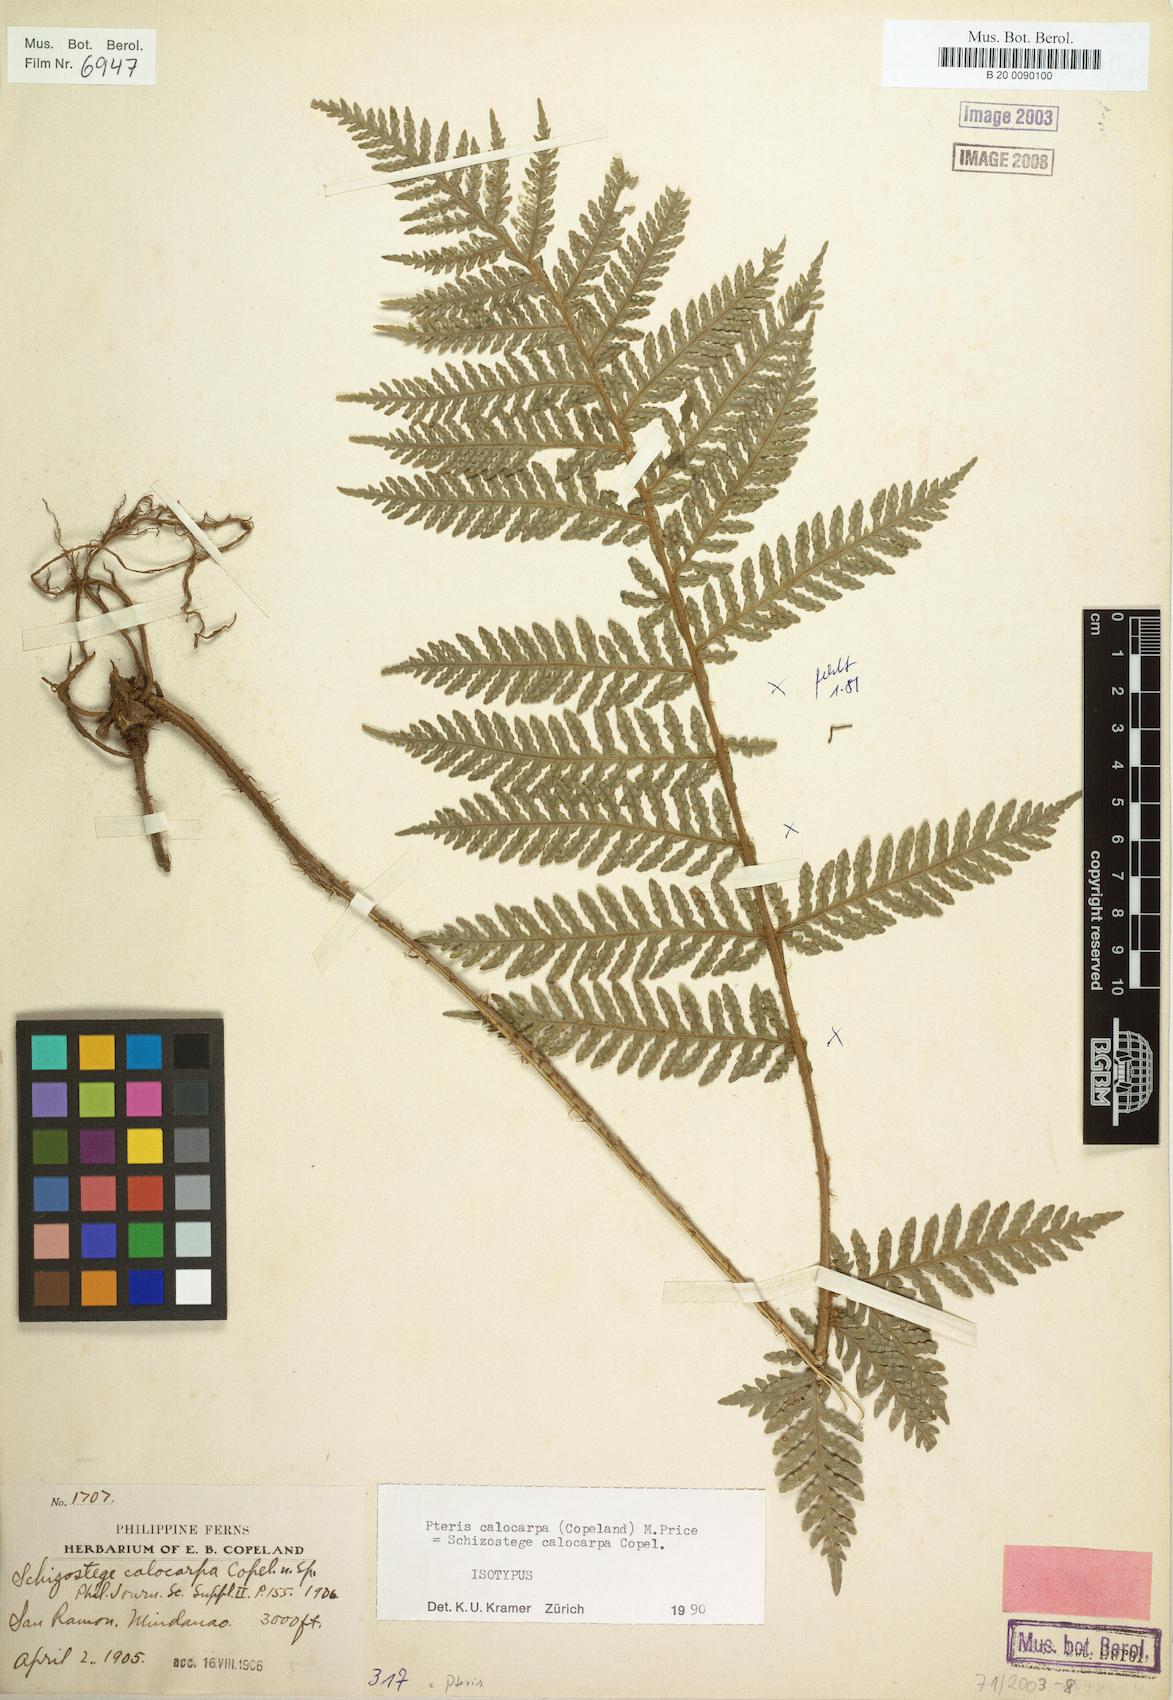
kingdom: Plantae
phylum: Tracheophyta
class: Polypodiopsida
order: Polypodiales
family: Pteridaceae
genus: Pteris
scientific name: Pteris calocarpa
